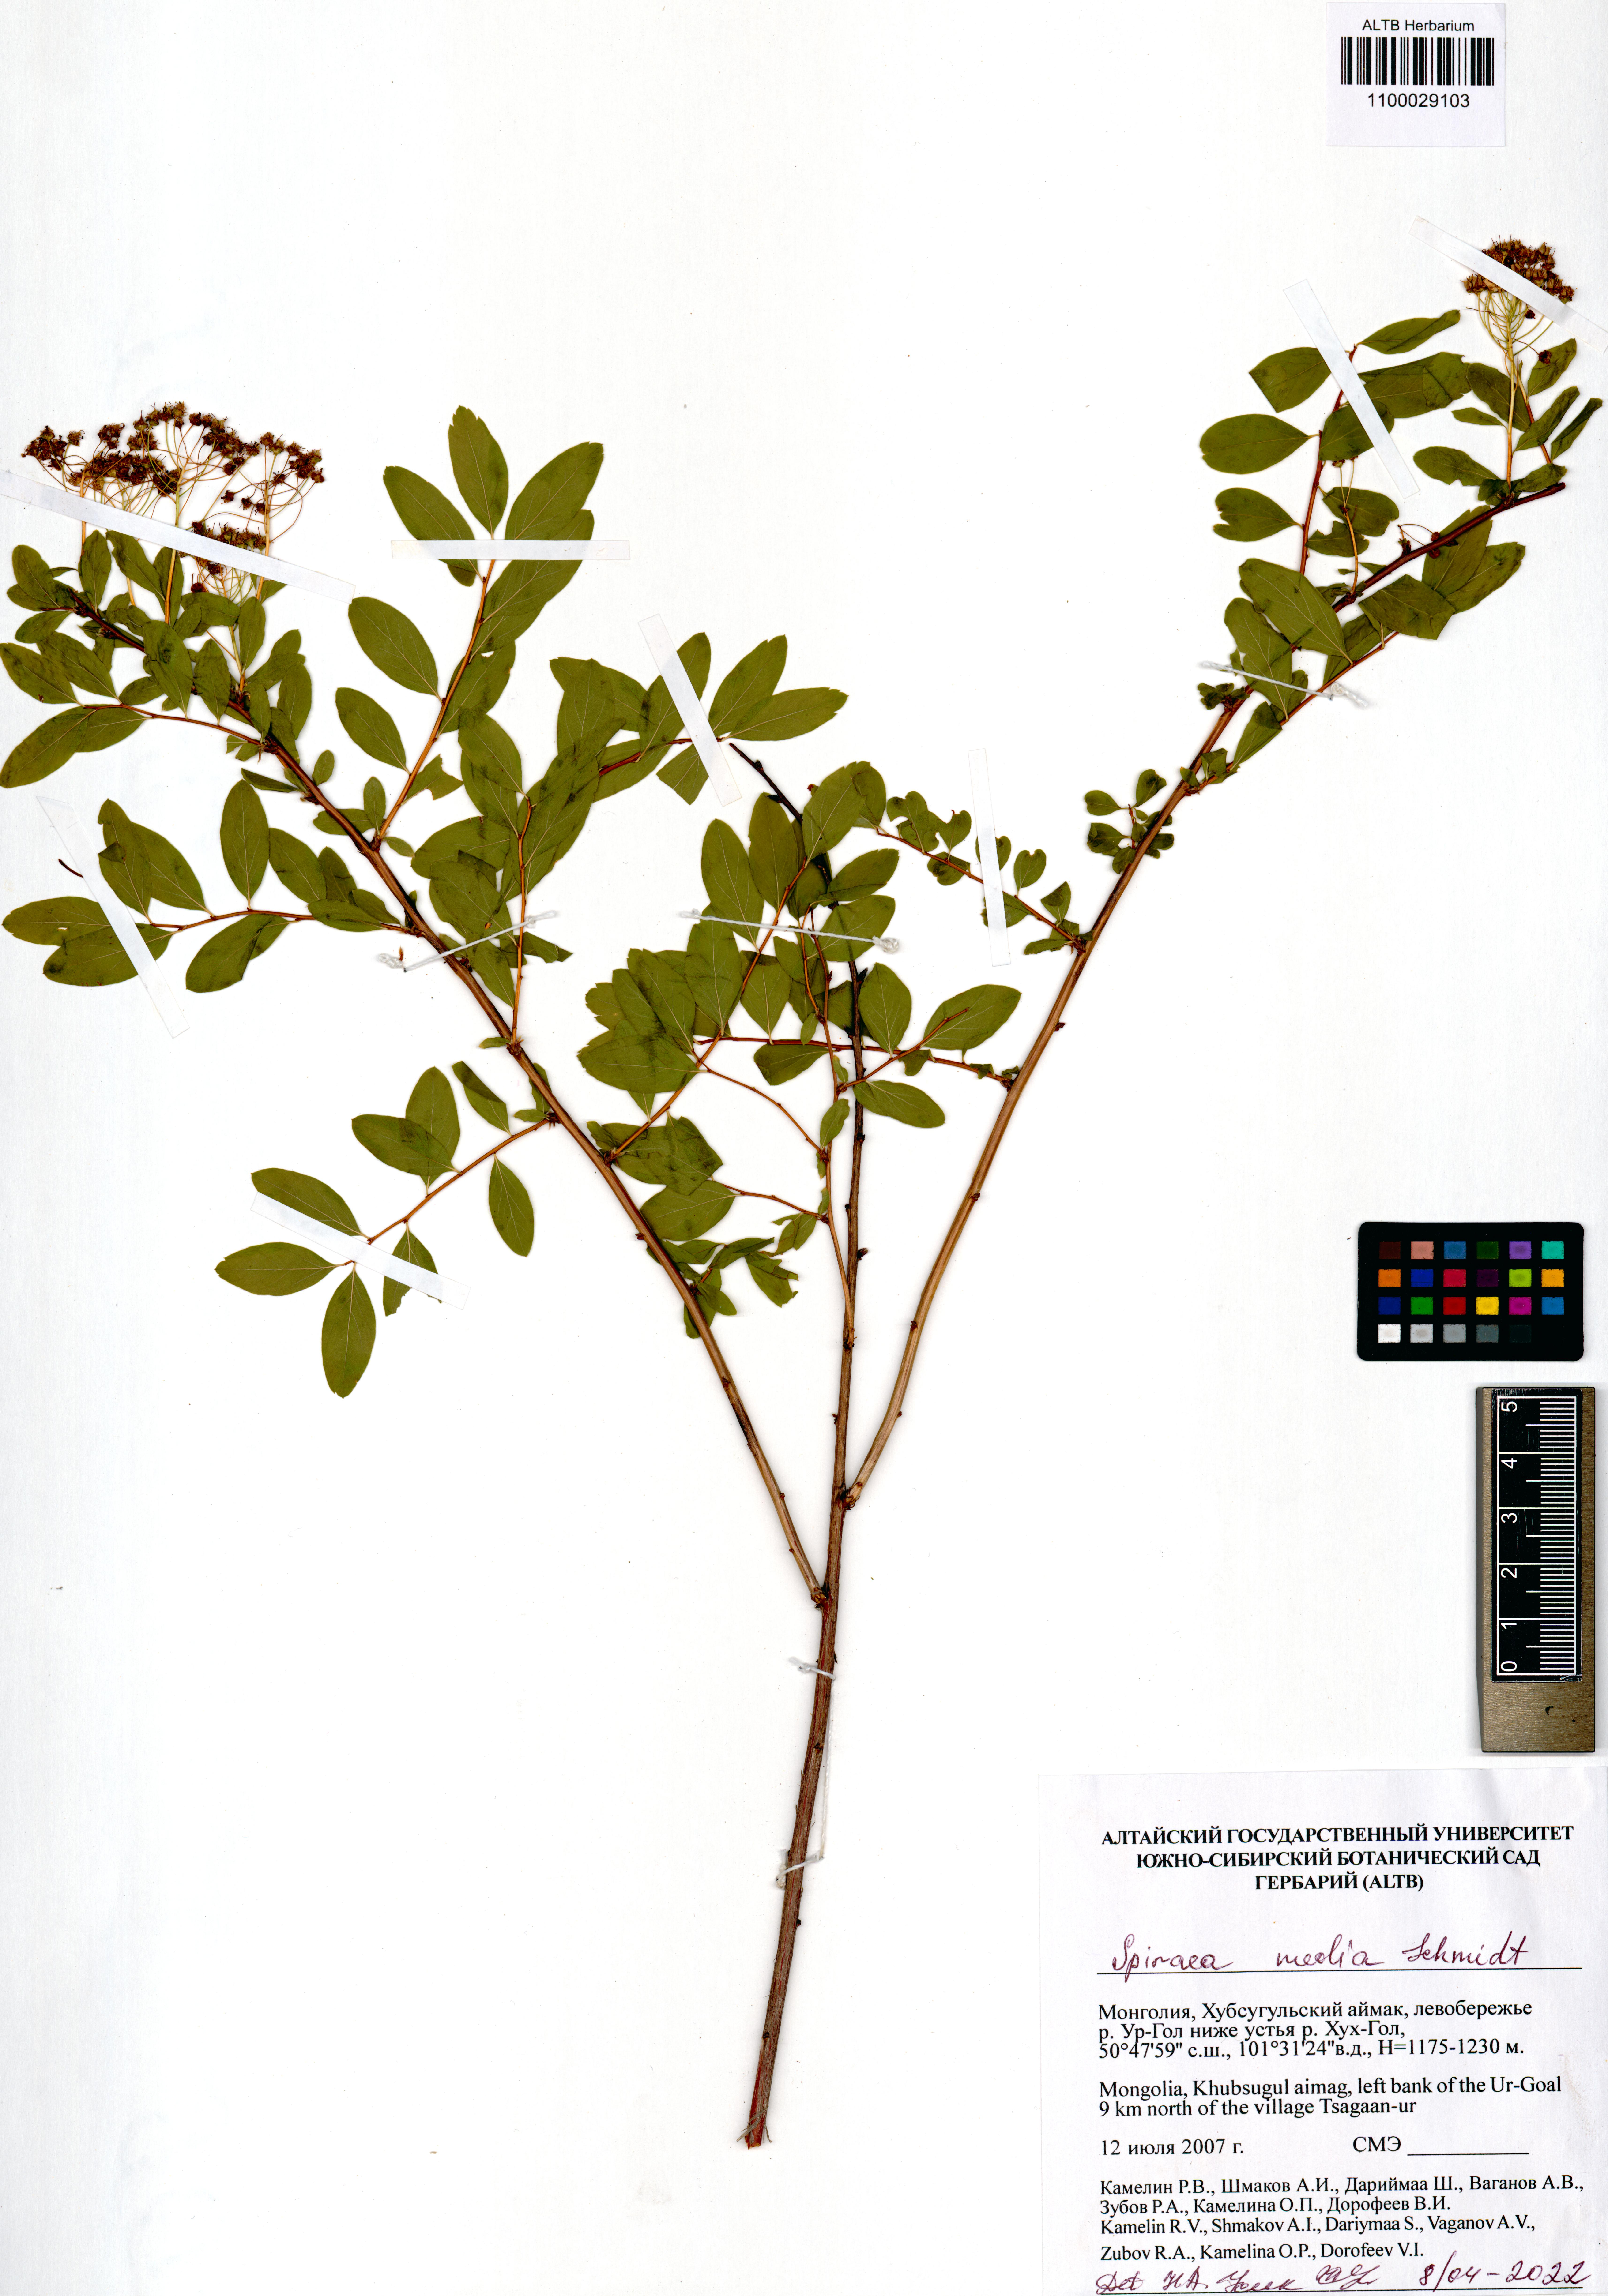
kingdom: Plantae
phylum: Tracheophyta
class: Magnoliopsida
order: Rosales
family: Rosaceae
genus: Spiraea
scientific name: Spiraea flexuosa
